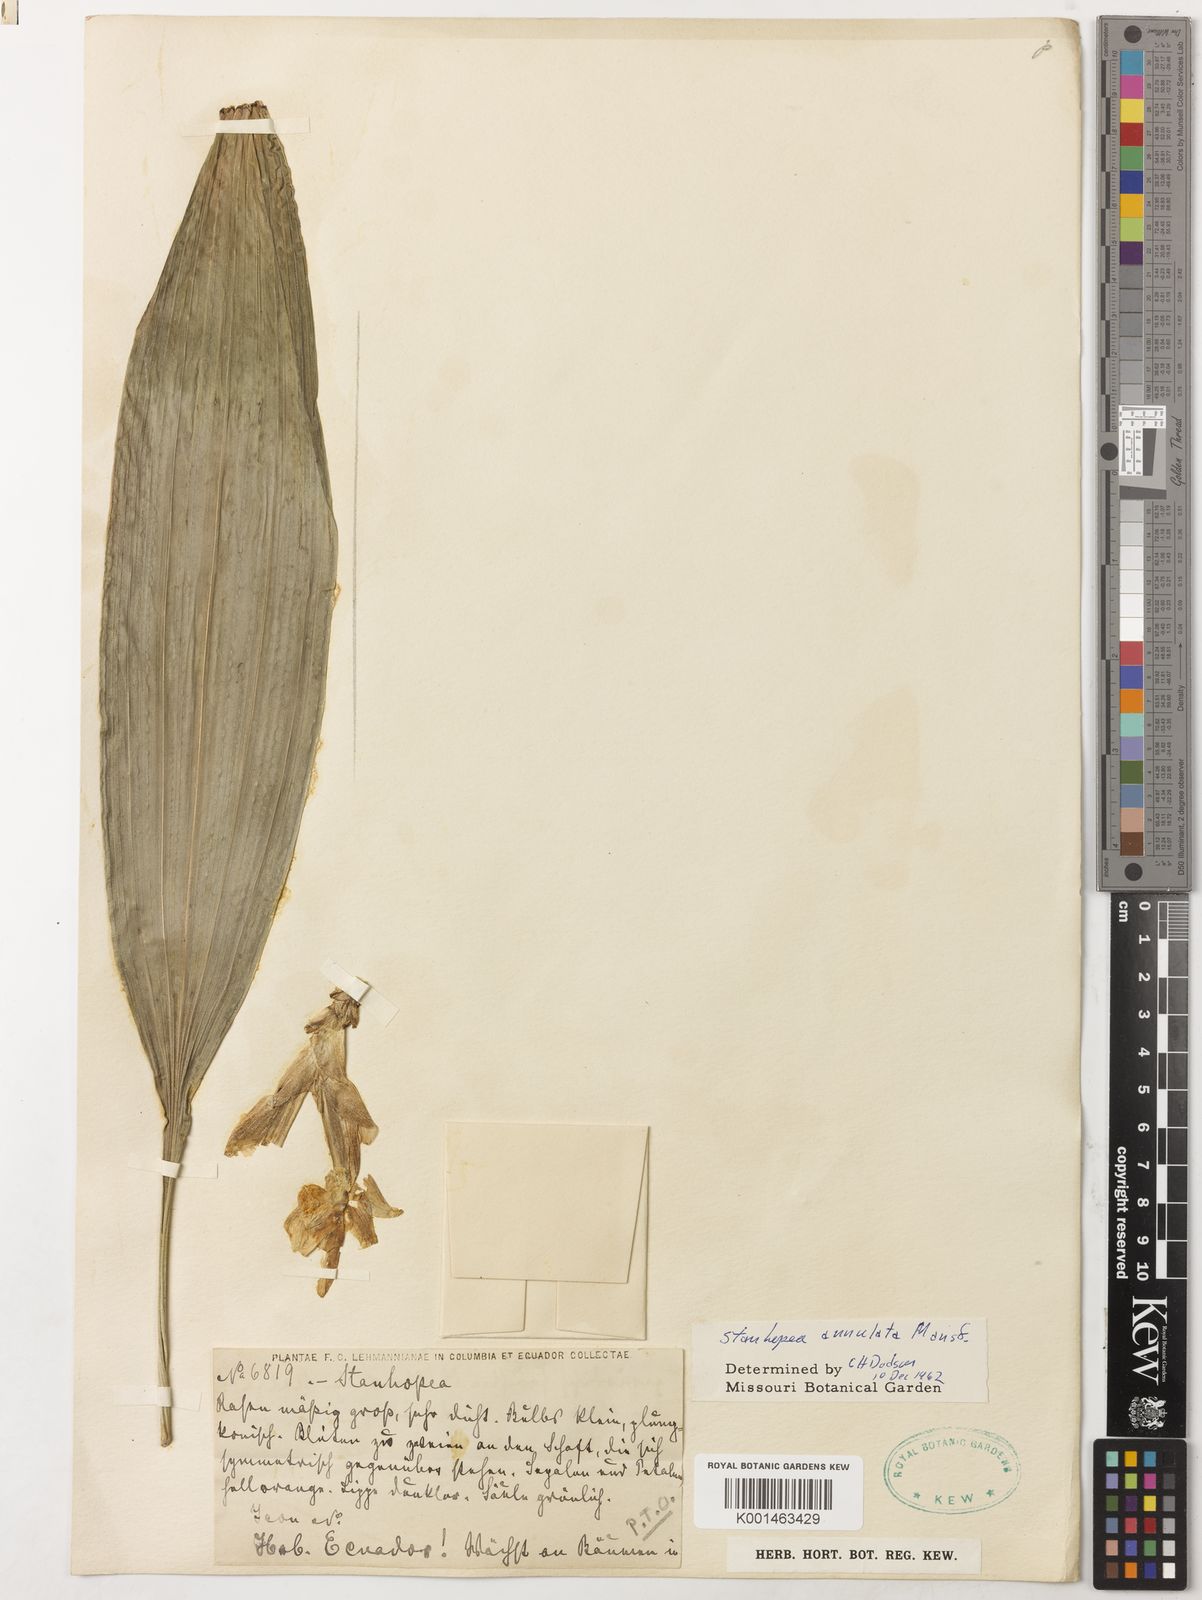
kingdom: Plantae
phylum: Tracheophyta
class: Liliopsida
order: Asparagales
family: Orchidaceae
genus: Stanhopea
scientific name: Stanhopea annulata
